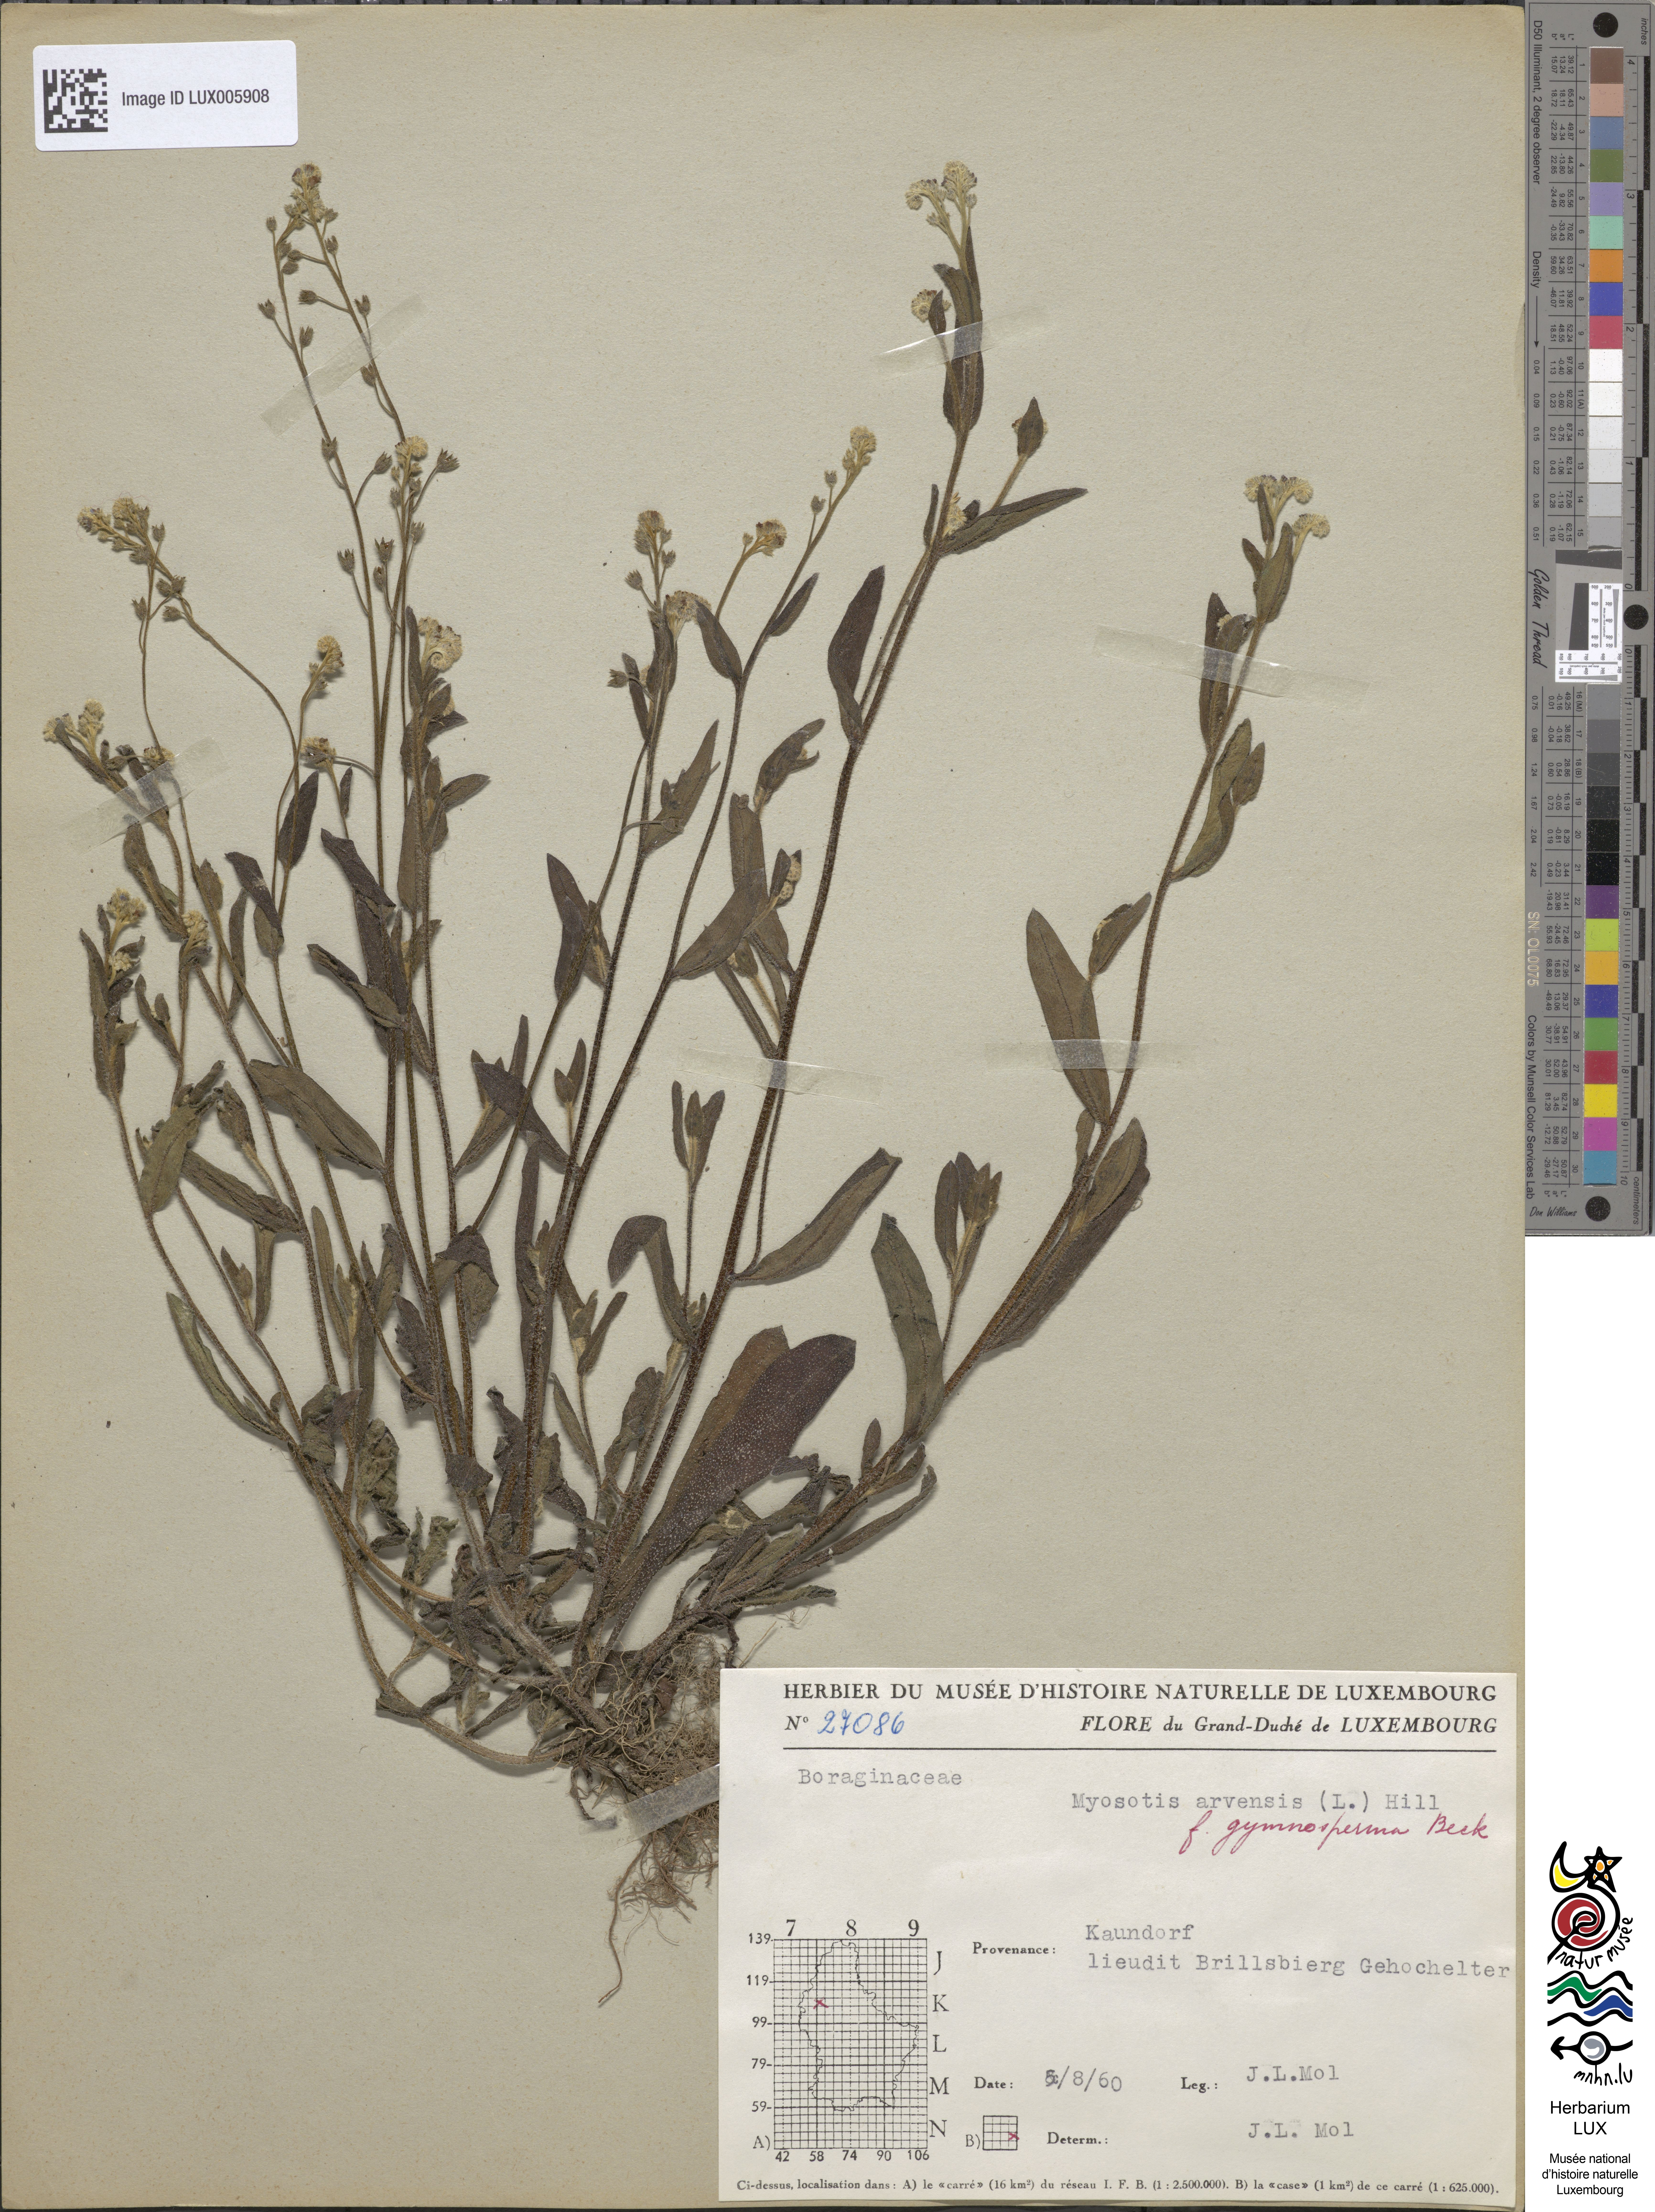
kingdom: Plantae
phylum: Tracheophyta
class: Magnoliopsida
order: Boraginales
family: Boraginaceae
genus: Myosotis
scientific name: Myosotis arvensis
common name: Field forget-me-not
